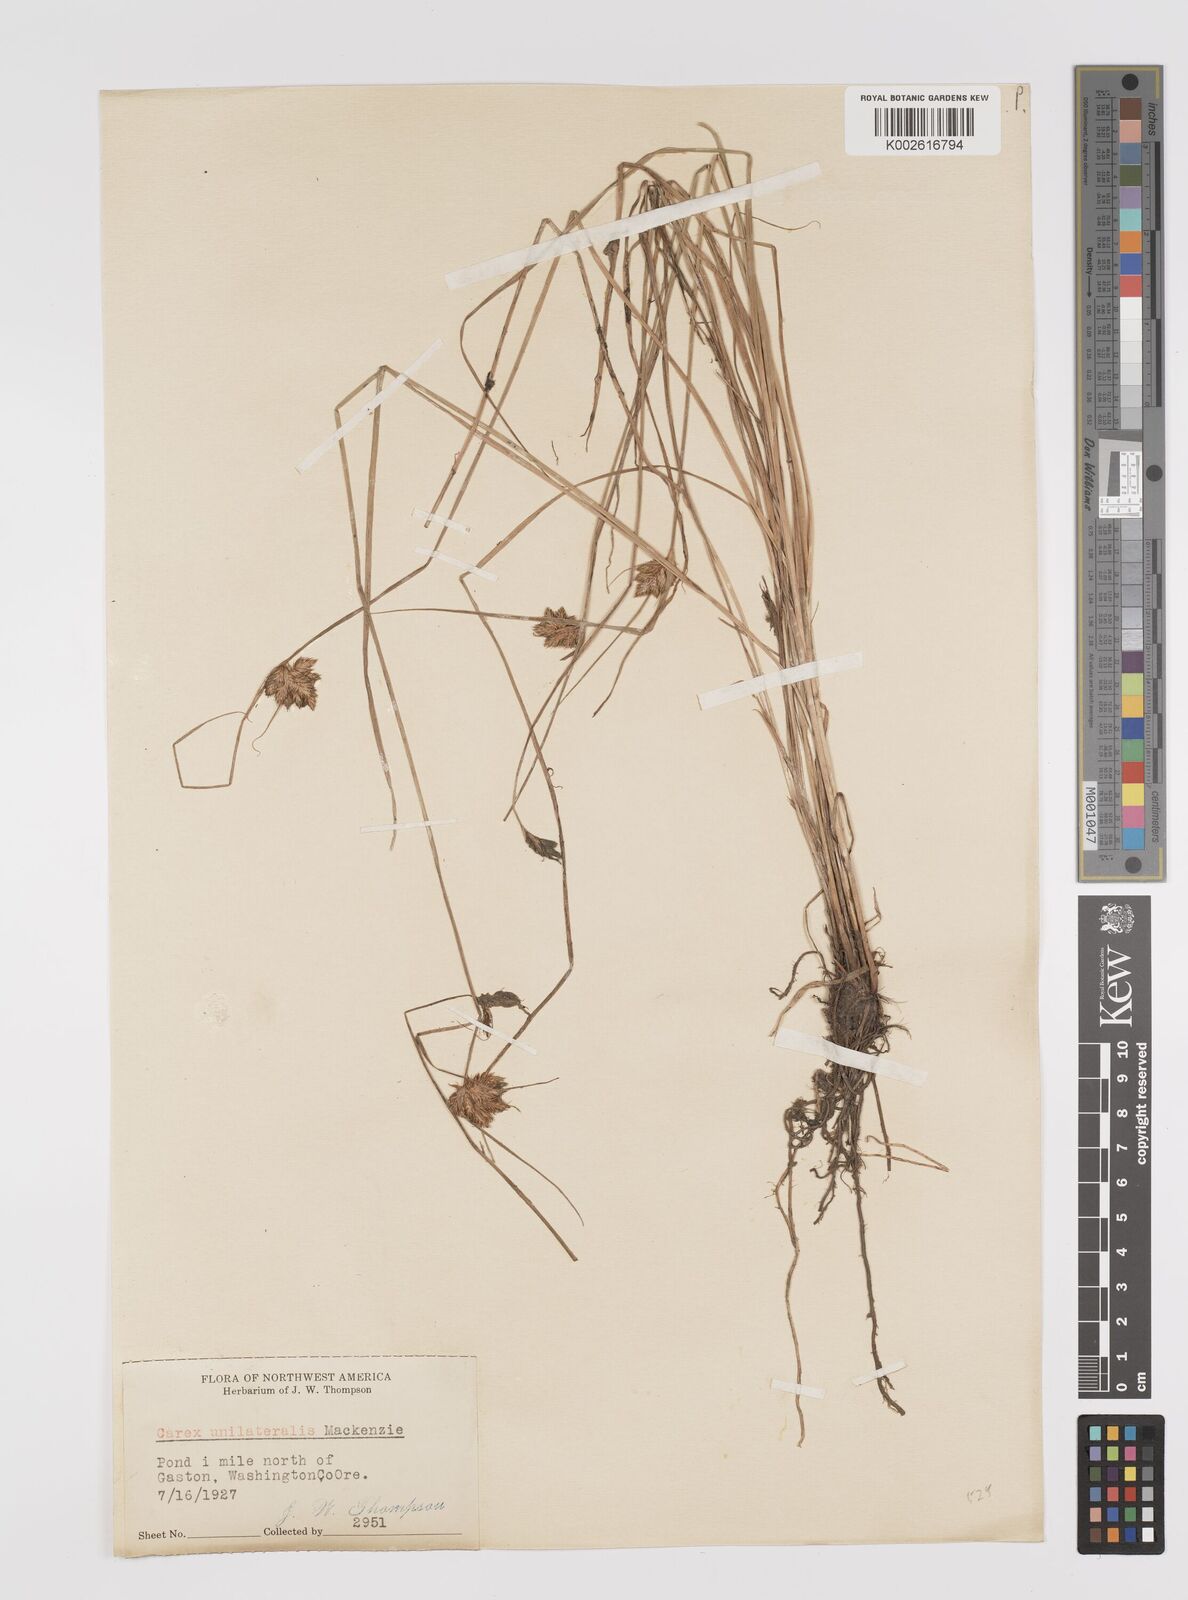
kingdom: Plantae
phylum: Tracheophyta
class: Liliopsida
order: Poales
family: Cyperaceae
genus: Carex
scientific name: Carex unilateralis
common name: Lateral sedge
